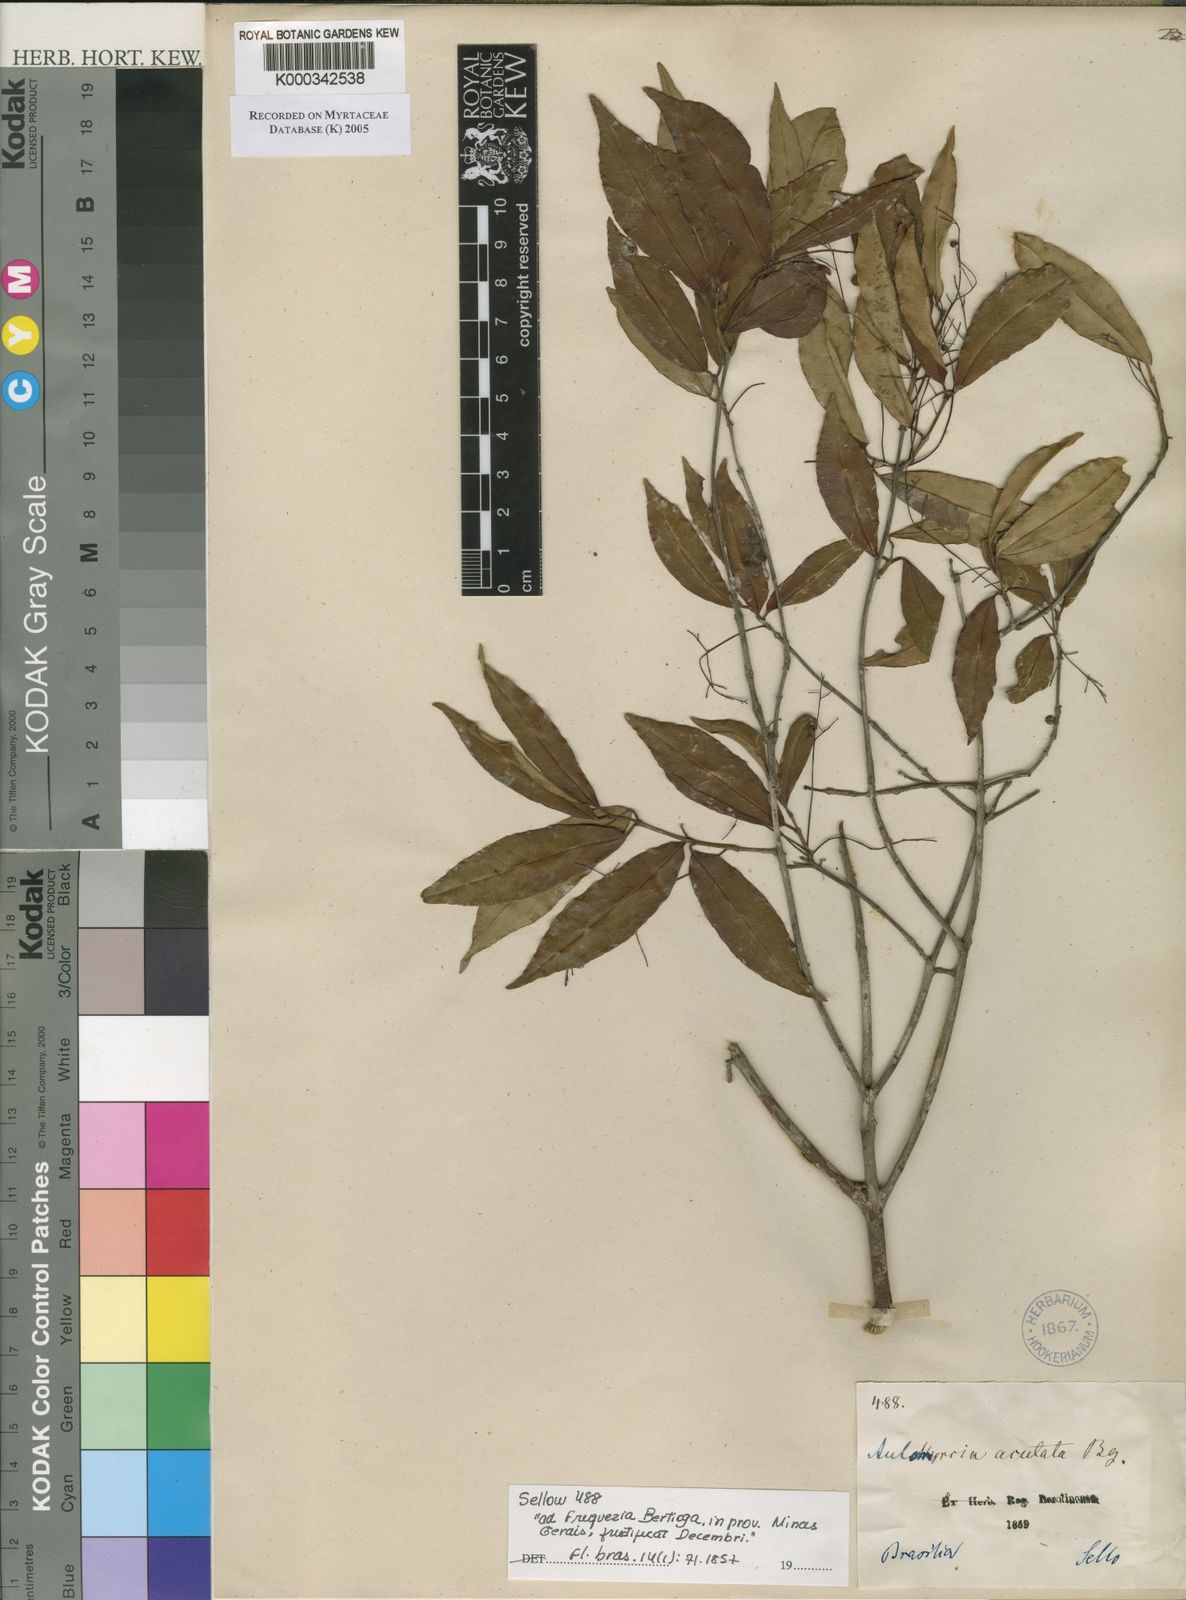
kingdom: Plantae
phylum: Tracheophyta
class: Magnoliopsida
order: Myrtales
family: Myrtaceae
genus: Myrcia
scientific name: Myrcia selloi
